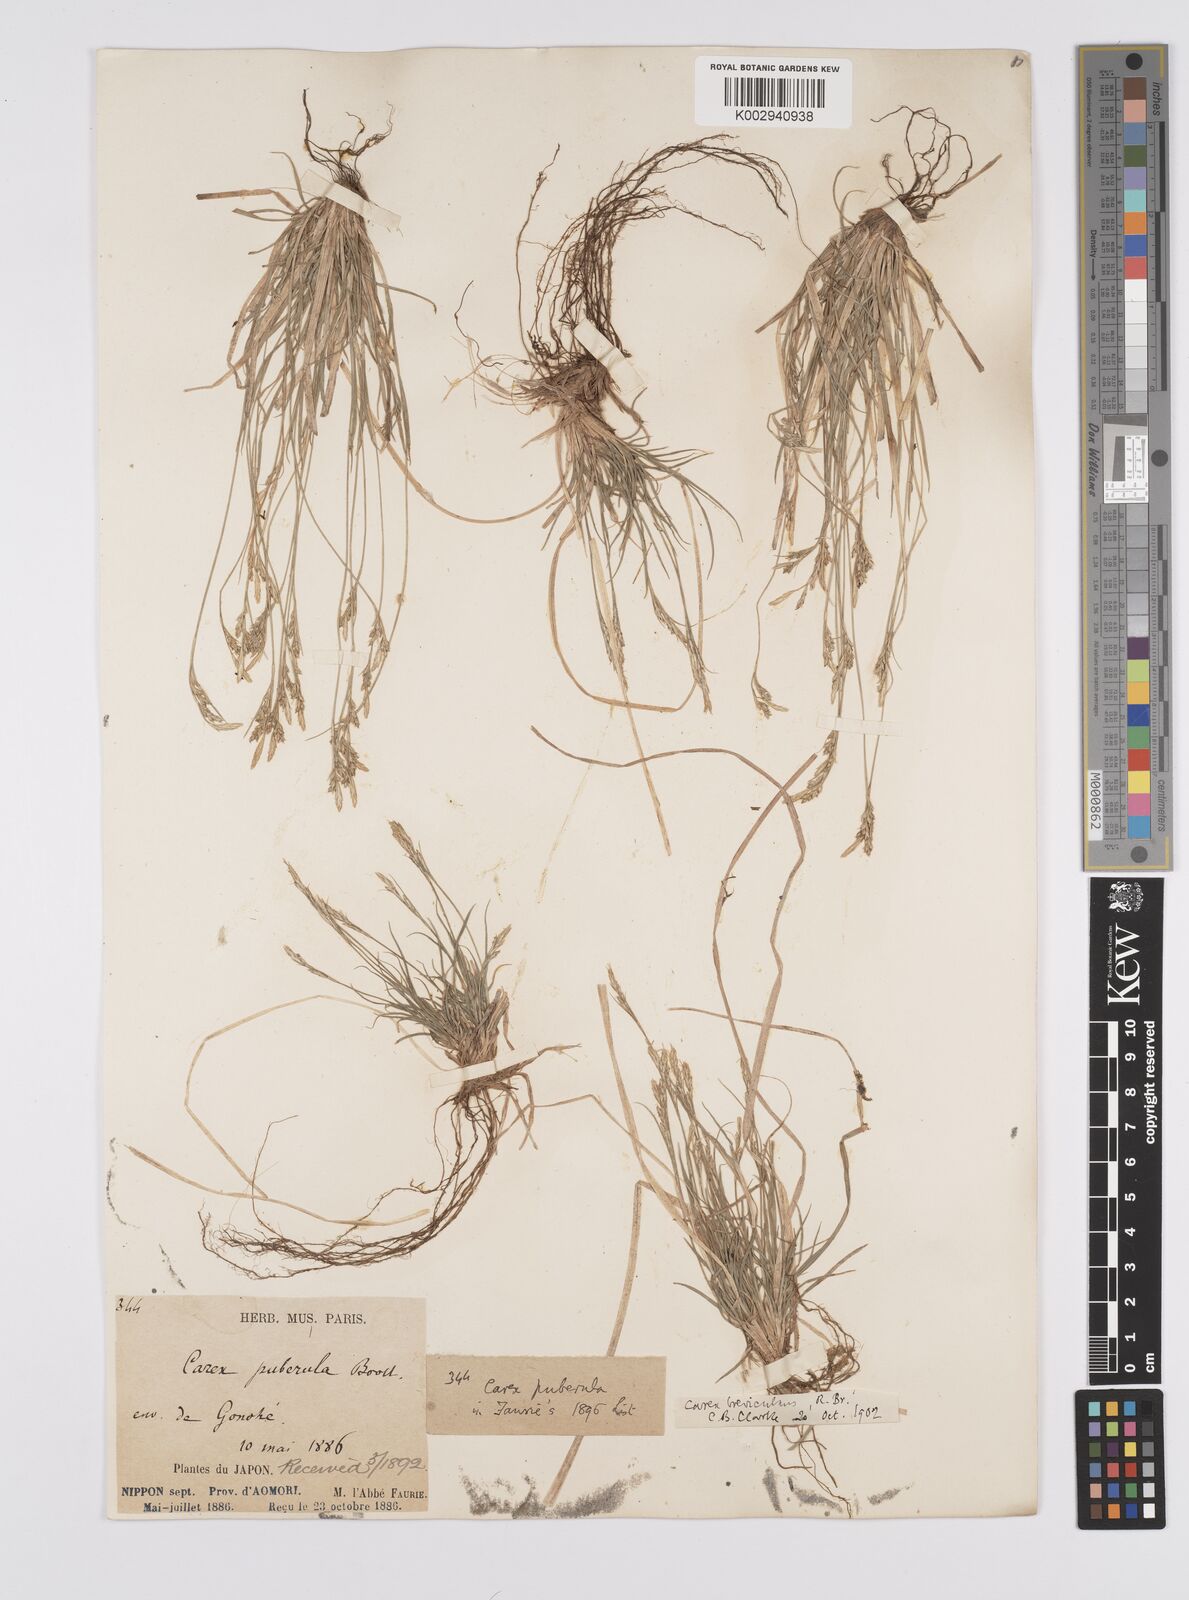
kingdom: Plantae
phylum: Tracheophyta
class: Liliopsida
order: Poales
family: Cyperaceae
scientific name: Cyperaceae
